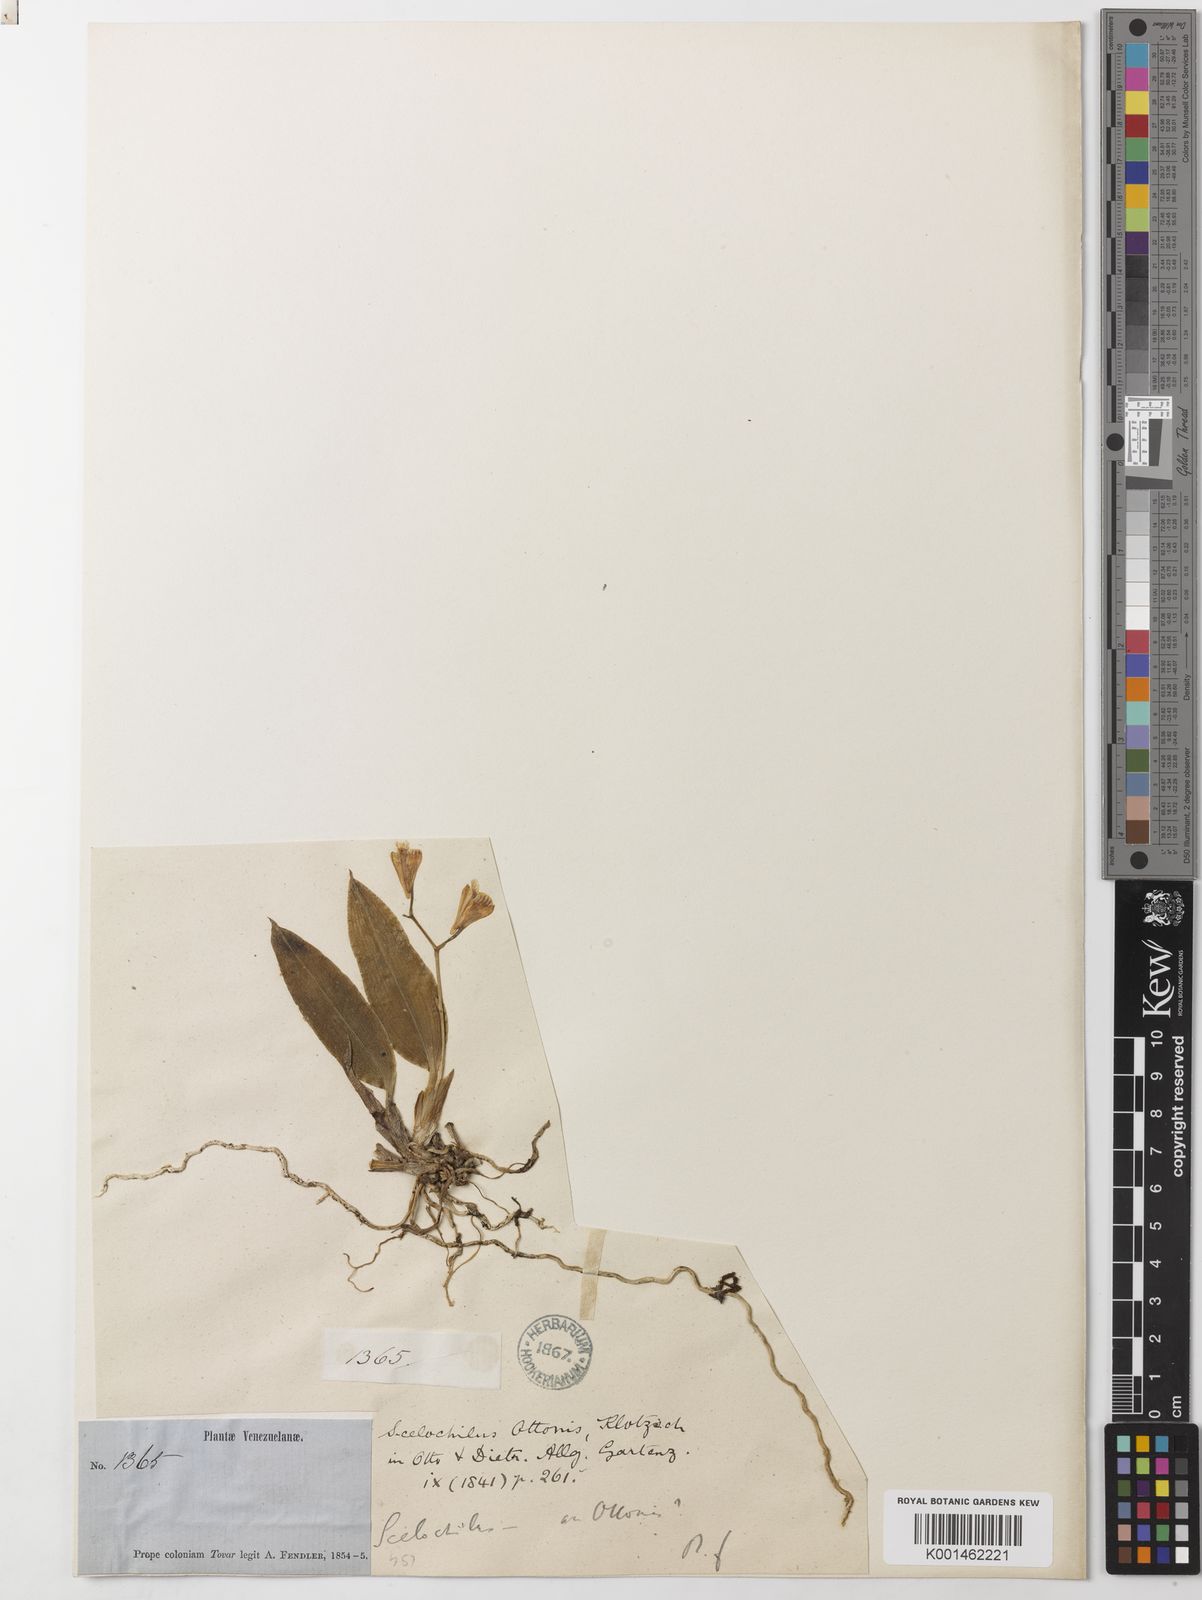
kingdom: Plantae
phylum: Tracheophyta
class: Liliopsida
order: Asparagales
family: Orchidaceae
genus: Comparettia
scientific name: Comparettia ottonis
